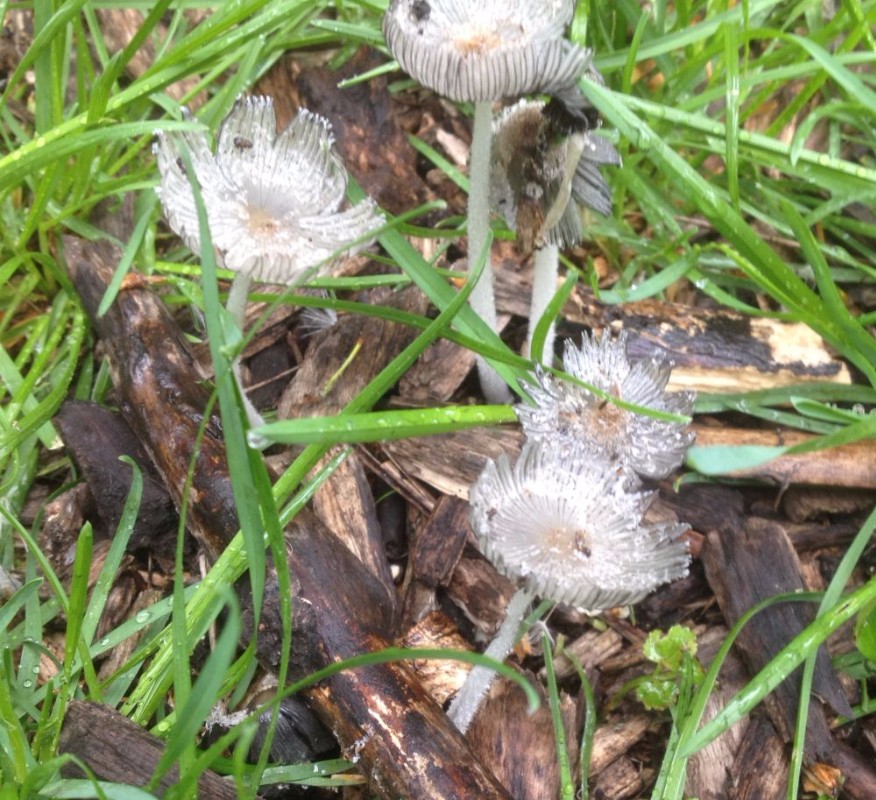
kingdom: Fungi
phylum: Basidiomycota
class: Agaricomycetes
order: Agaricales
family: Psathyrellaceae
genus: Coprinopsis
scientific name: Coprinopsis lagopus
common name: dunstokket blækhat
